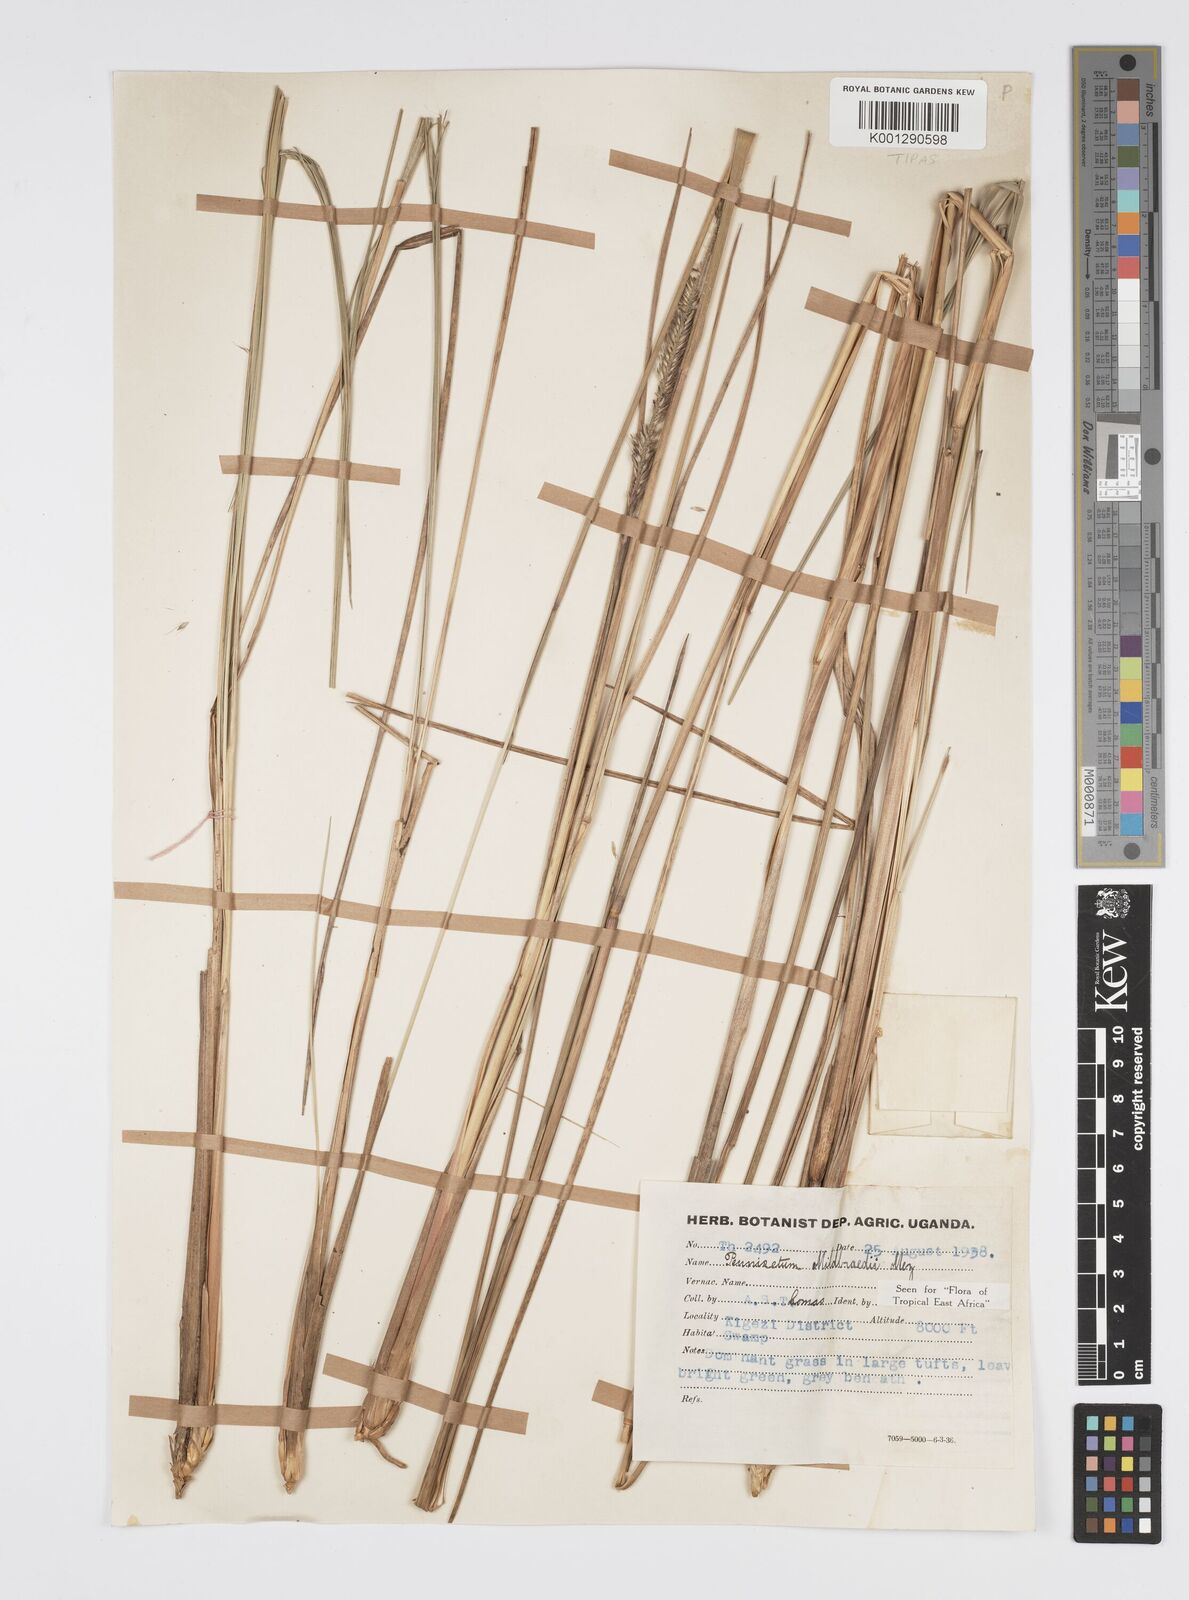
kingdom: Plantae
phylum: Tracheophyta
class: Liliopsida
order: Poales
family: Poaceae
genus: Cenchrus
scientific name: Cenchrus caudatus
